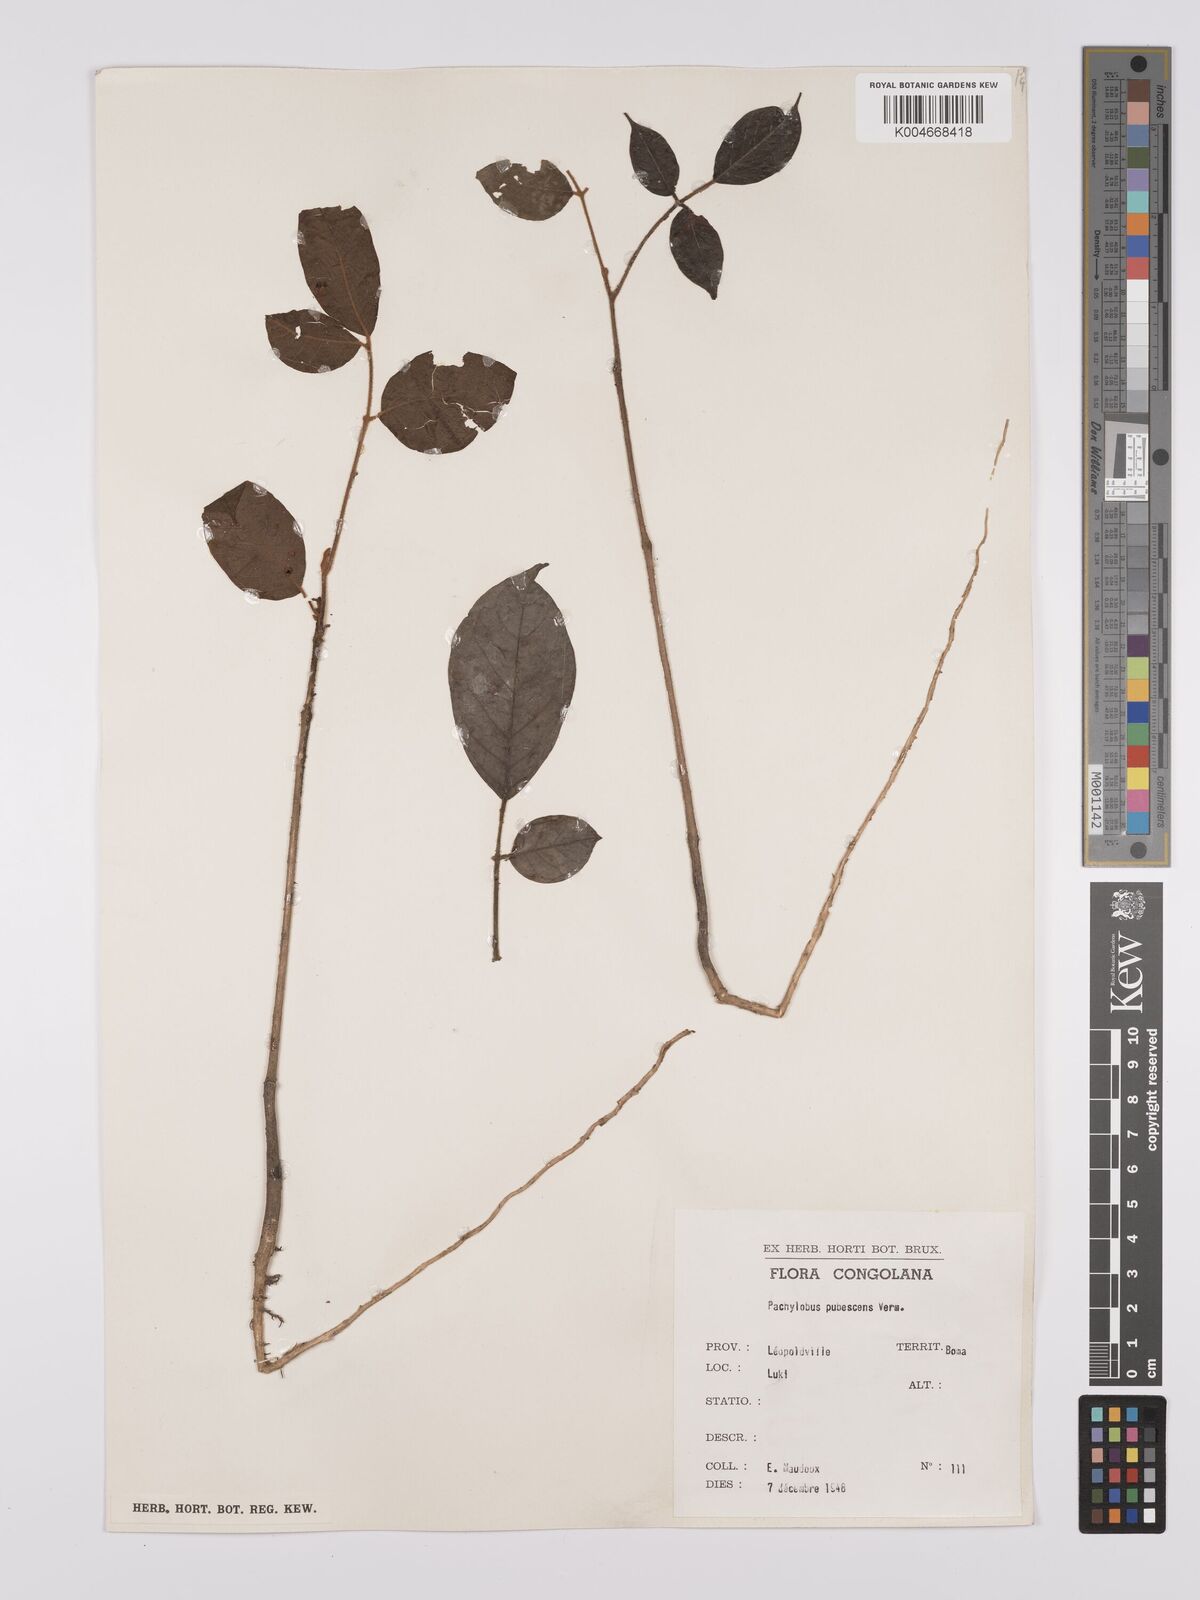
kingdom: Plantae
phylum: Tracheophyta
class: Magnoliopsida
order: Sapindales
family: Burseraceae
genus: Dacryodes
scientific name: Dacryodes
